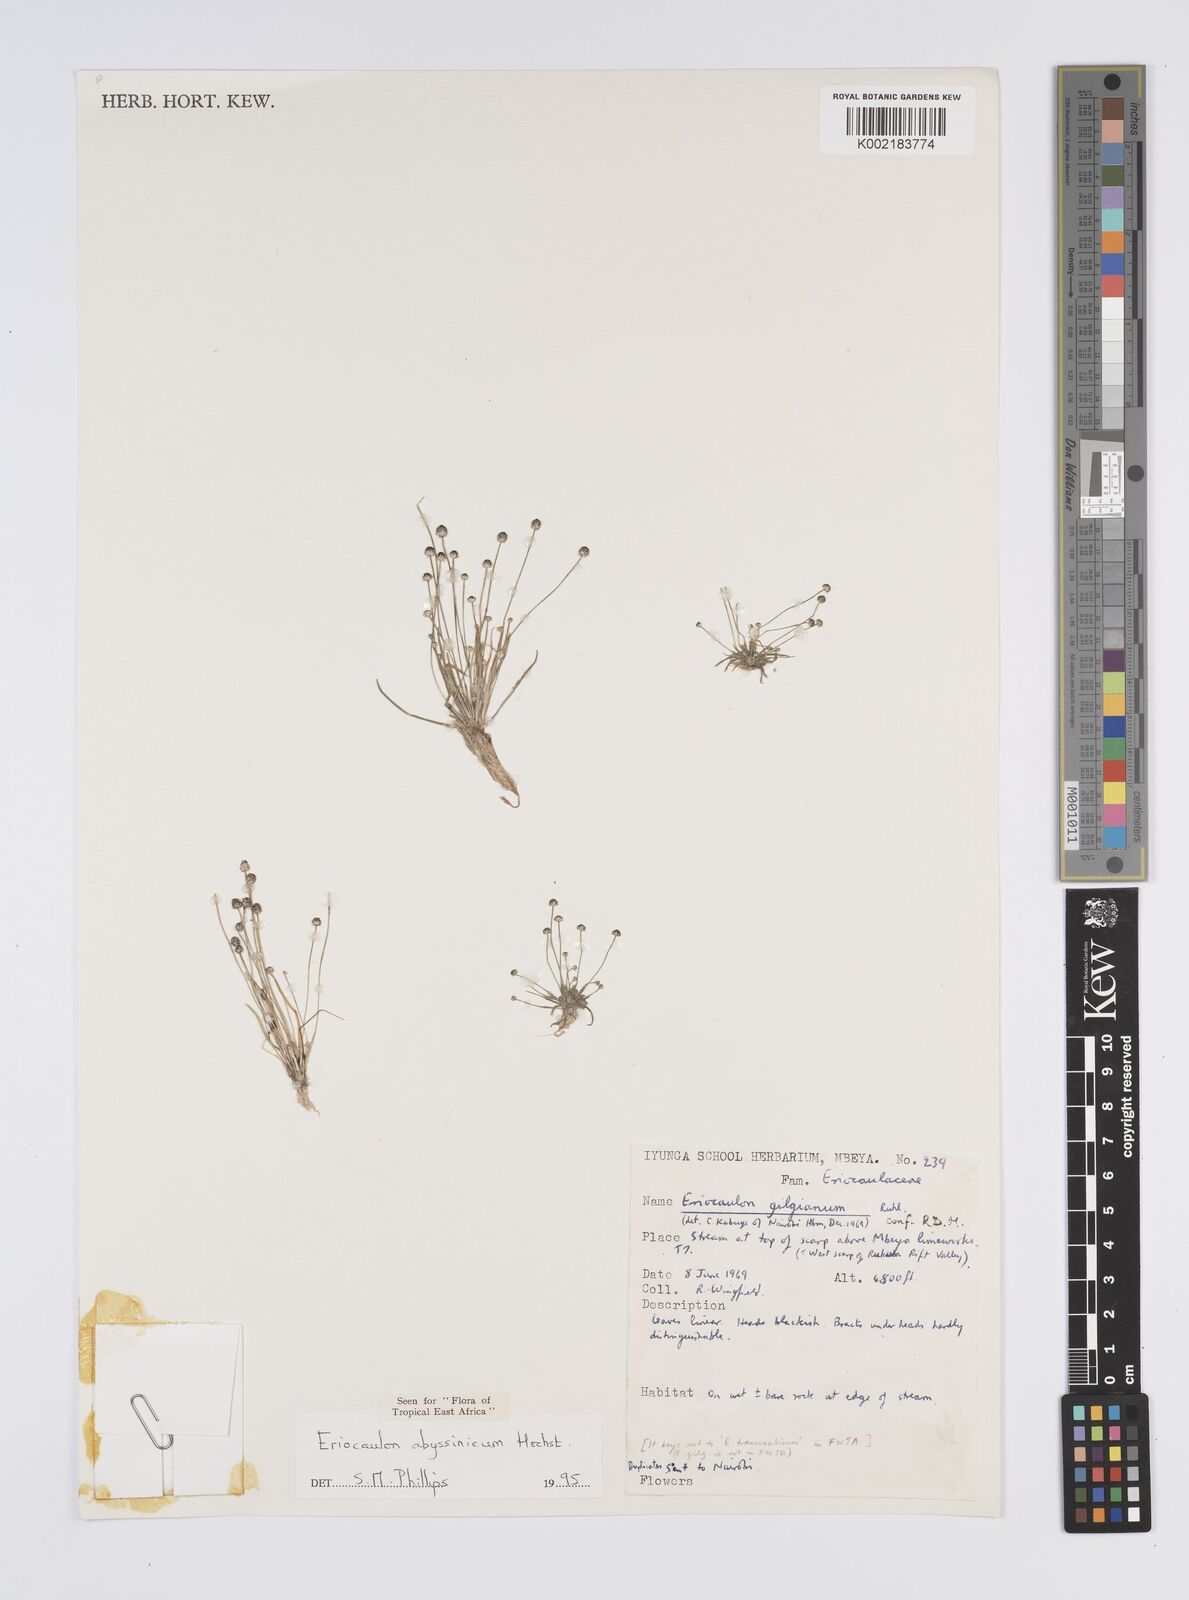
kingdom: Plantae
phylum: Tracheophyta
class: Liliopsida
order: Poales
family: Eriocaulaceae
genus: Eriocaulon
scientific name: Eriocaulon abyssinicum
